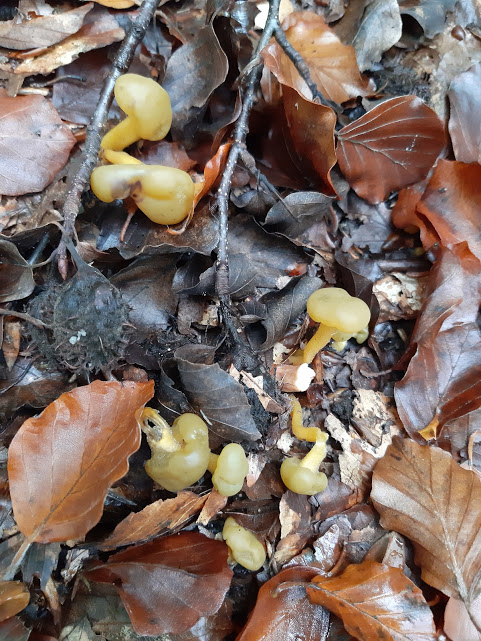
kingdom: Fungi
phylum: Ascomycota
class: Leotiomycetes
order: Leotiales
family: Leotiaceae
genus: Leotia
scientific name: Leotia lubrica
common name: ravsvamp
